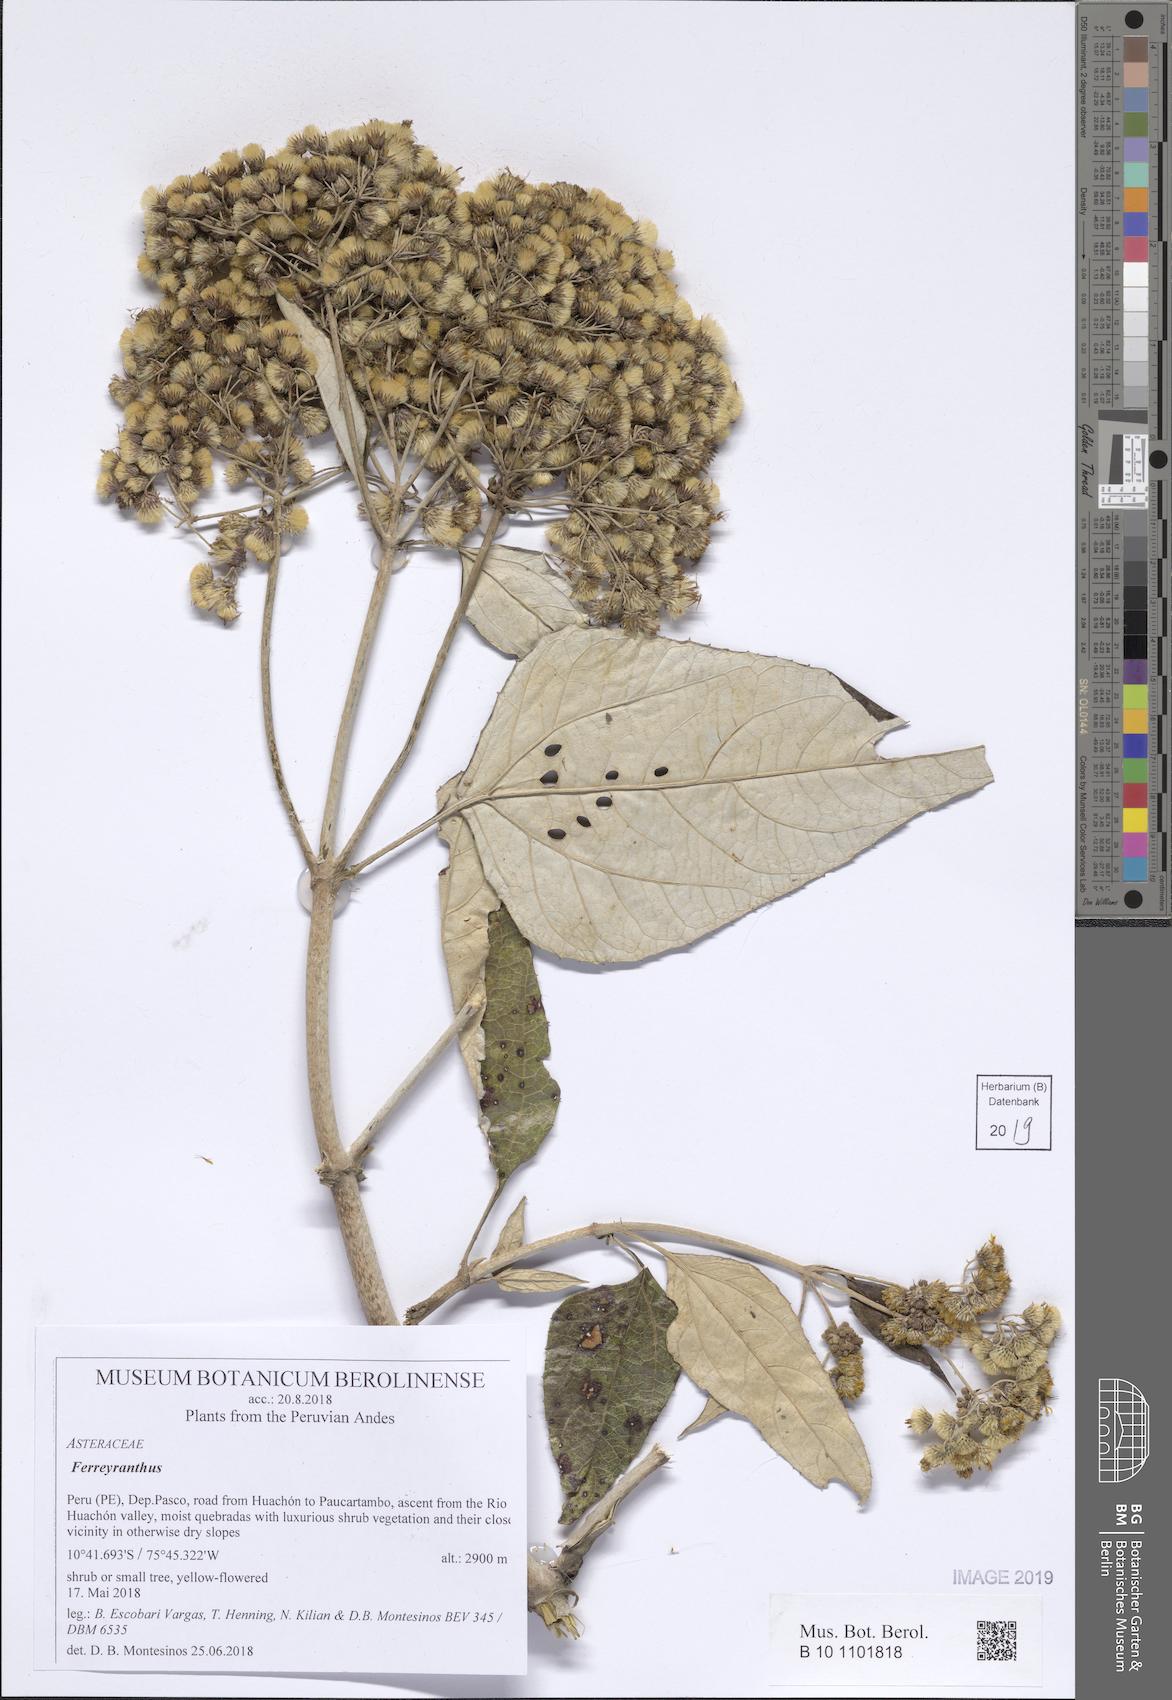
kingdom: Plantae
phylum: Tracheophyta
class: Magnoliopsida
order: Asterales
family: Asteraceae
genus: Ferreyranthus
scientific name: Ferreyranthus excelsus
